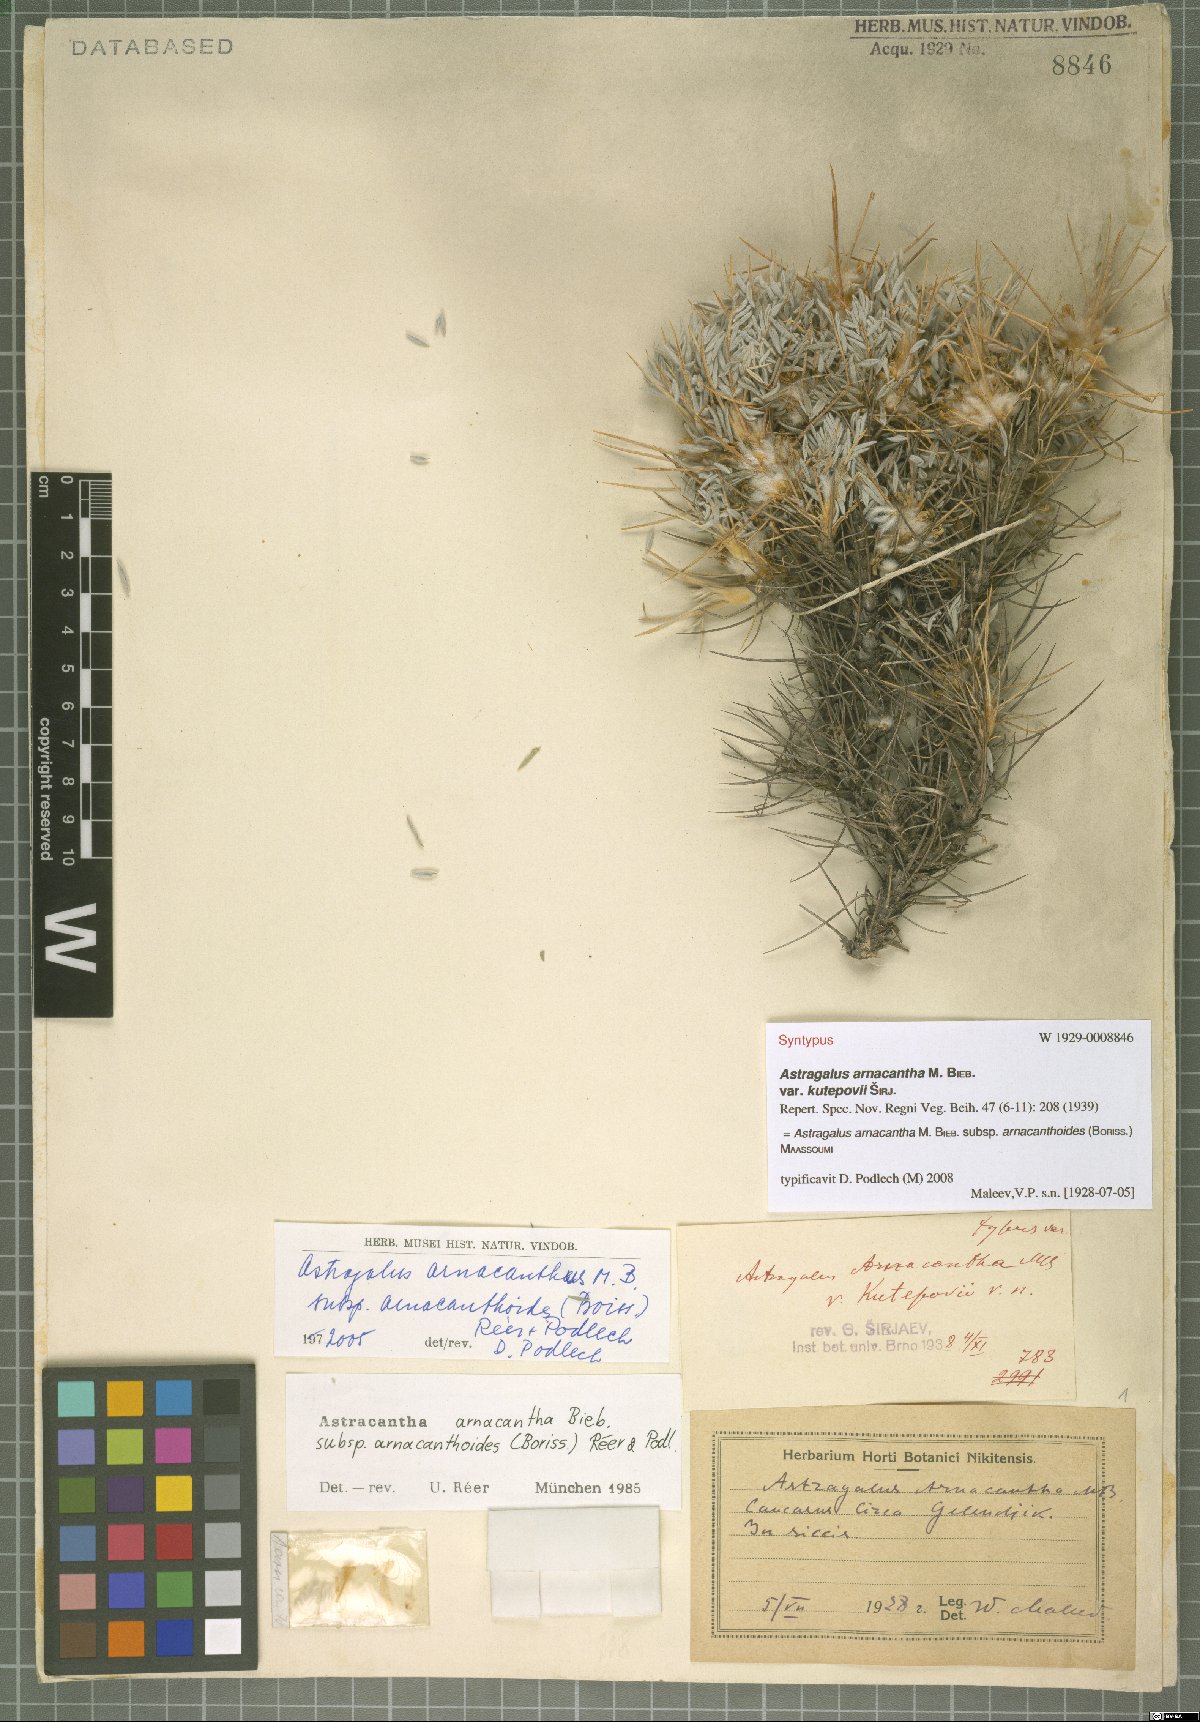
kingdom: Plantae
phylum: Tracheophyta
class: Magnoliopsida
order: Fabales
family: Fabaceae
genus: Astragalus
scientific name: Astragalus arnacanthoides
